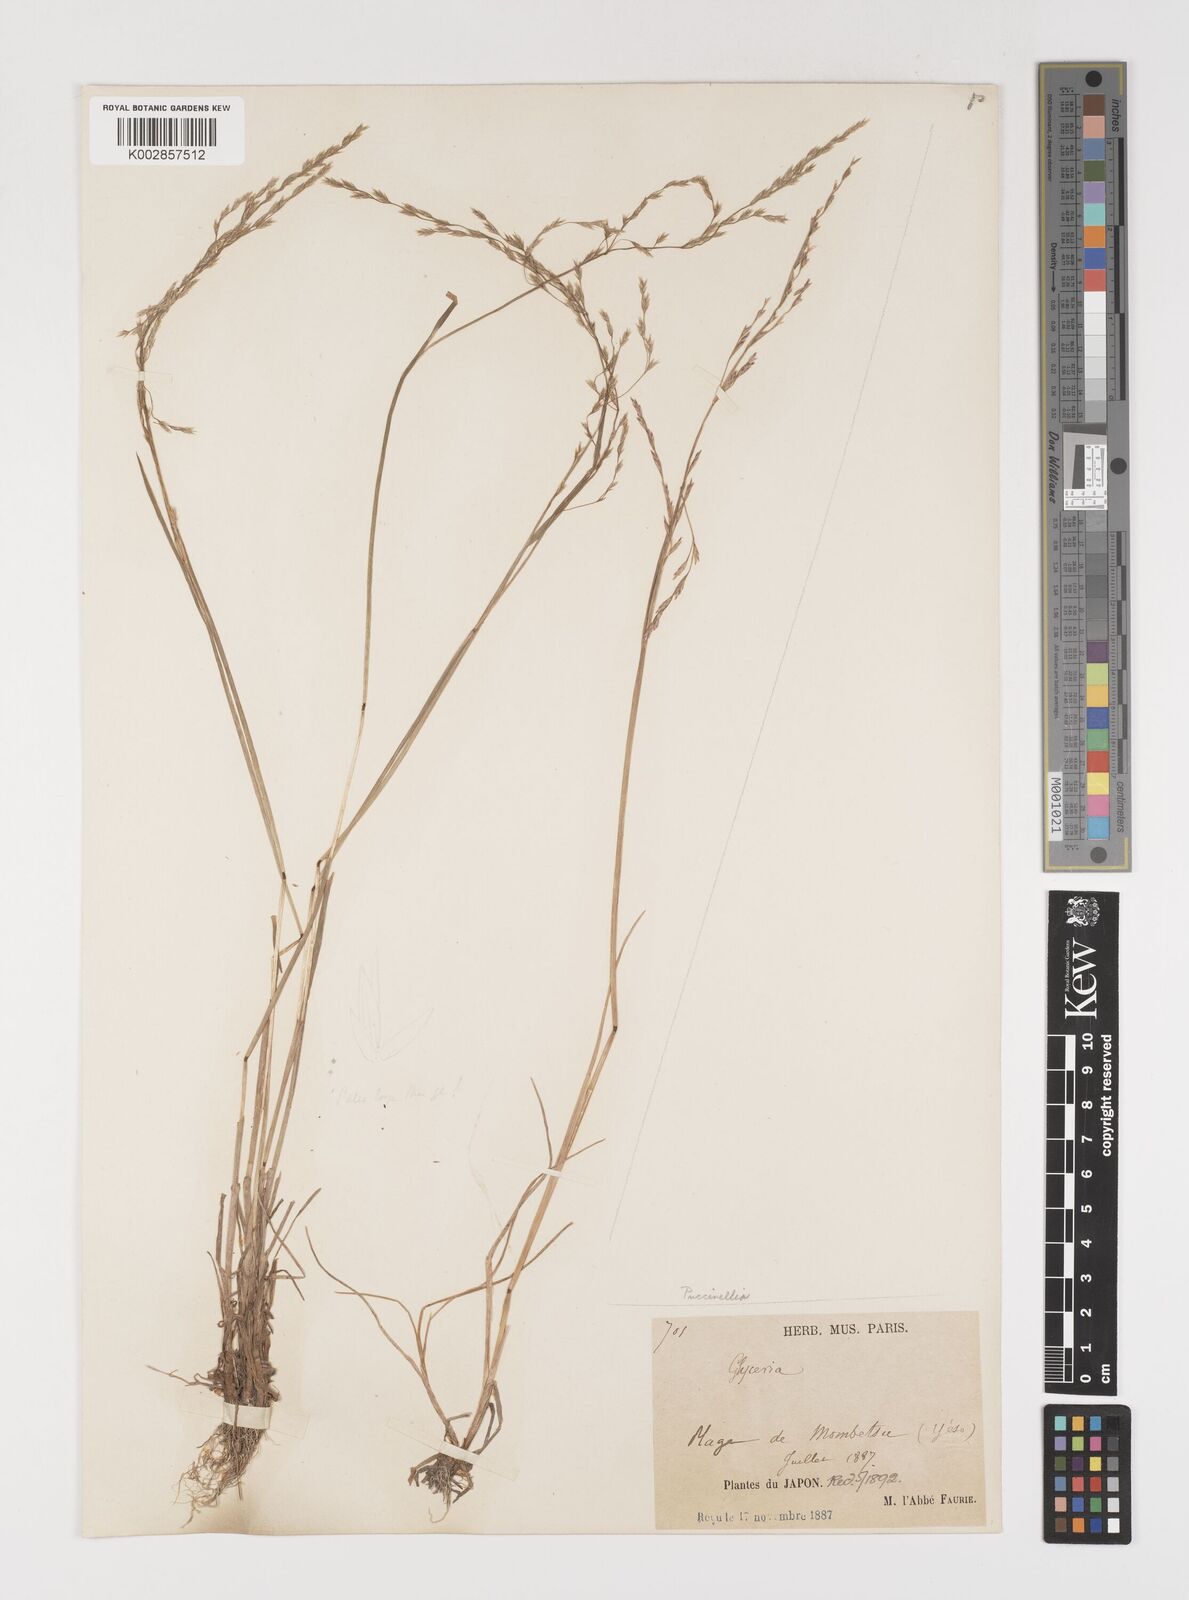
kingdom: Plantae
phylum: Tracheophyta
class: Liliopsida
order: Poales
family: Poaceae
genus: Puccinellia
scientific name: Puccinellia
